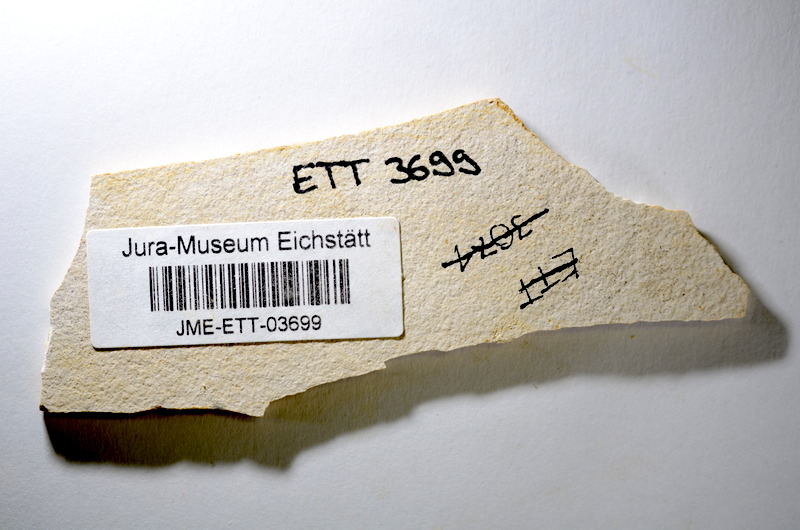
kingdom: Animalia
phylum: Chordata
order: Salmoniformes
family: Orthogonikleithridae
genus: Orthogonikleithrus
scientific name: Orthogonikleithrus hoelli
